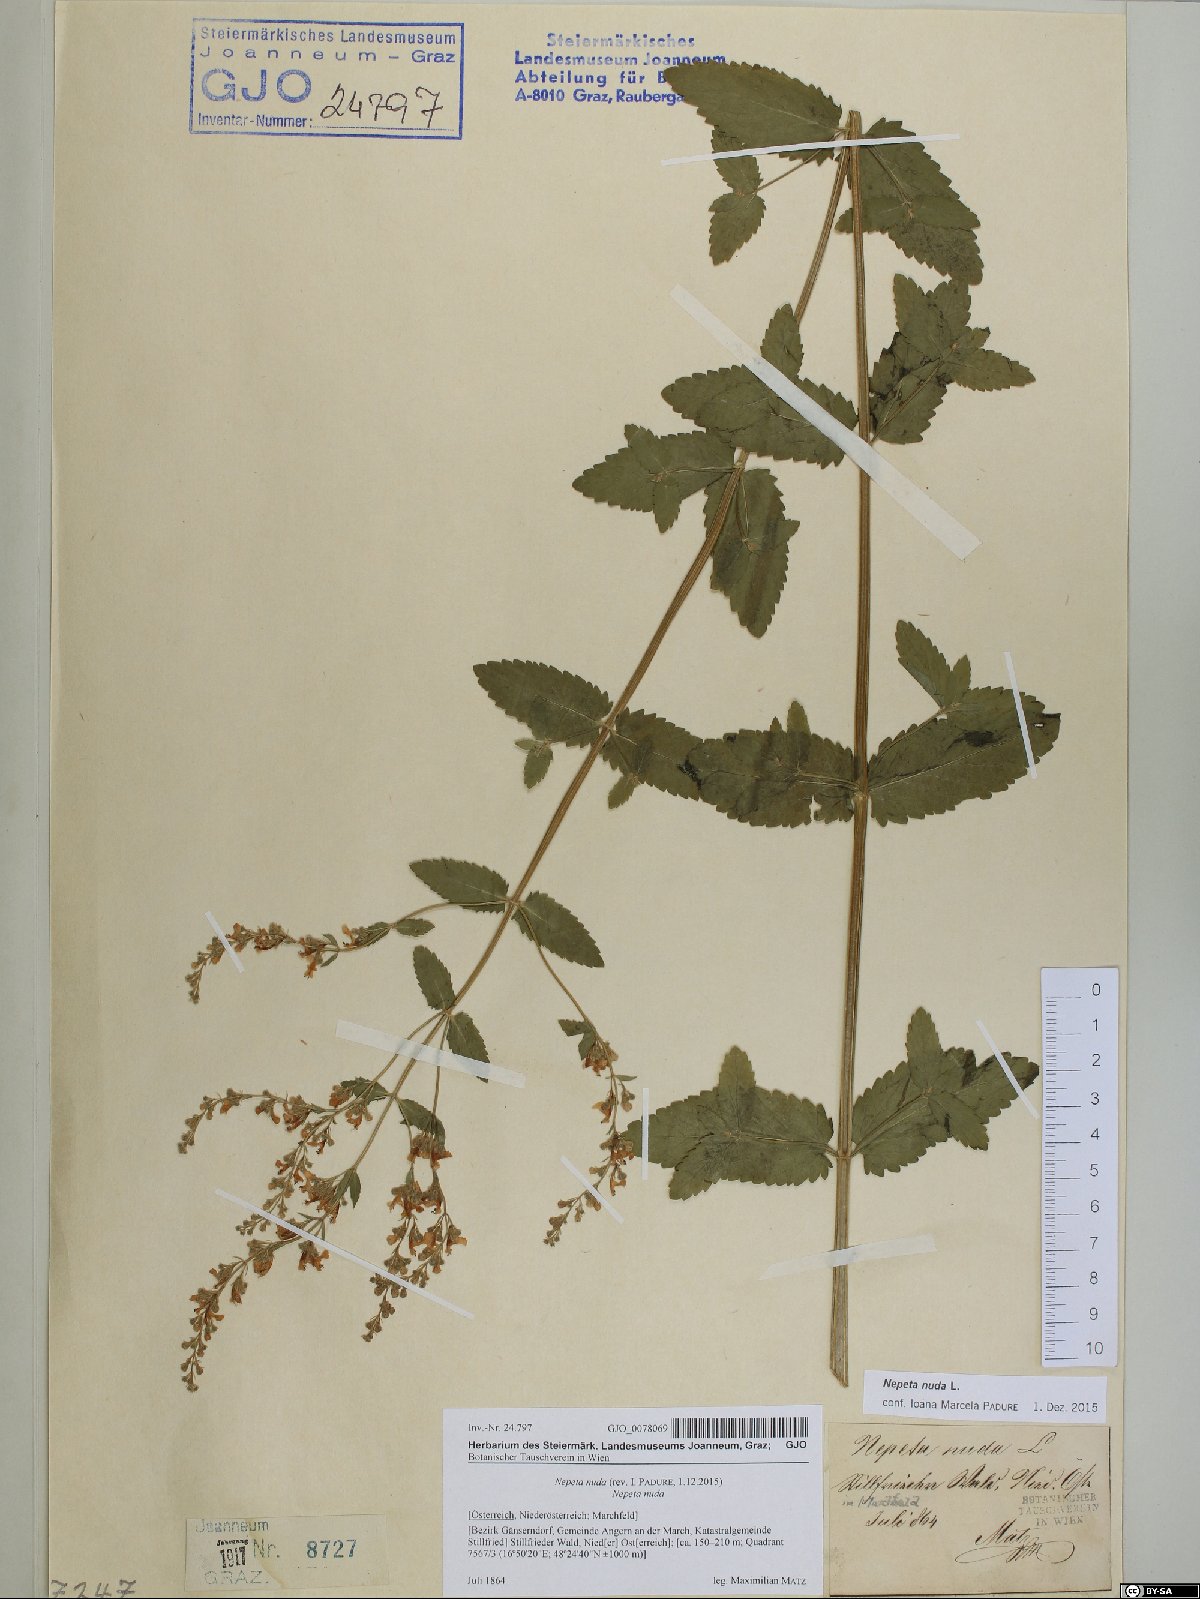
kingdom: Plantae
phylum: Tracheophyta
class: Magnoliopsida
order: Lamiales
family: Lamiaceae
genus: Nepeta
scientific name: Nepeta nuda
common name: Hairless catmint
